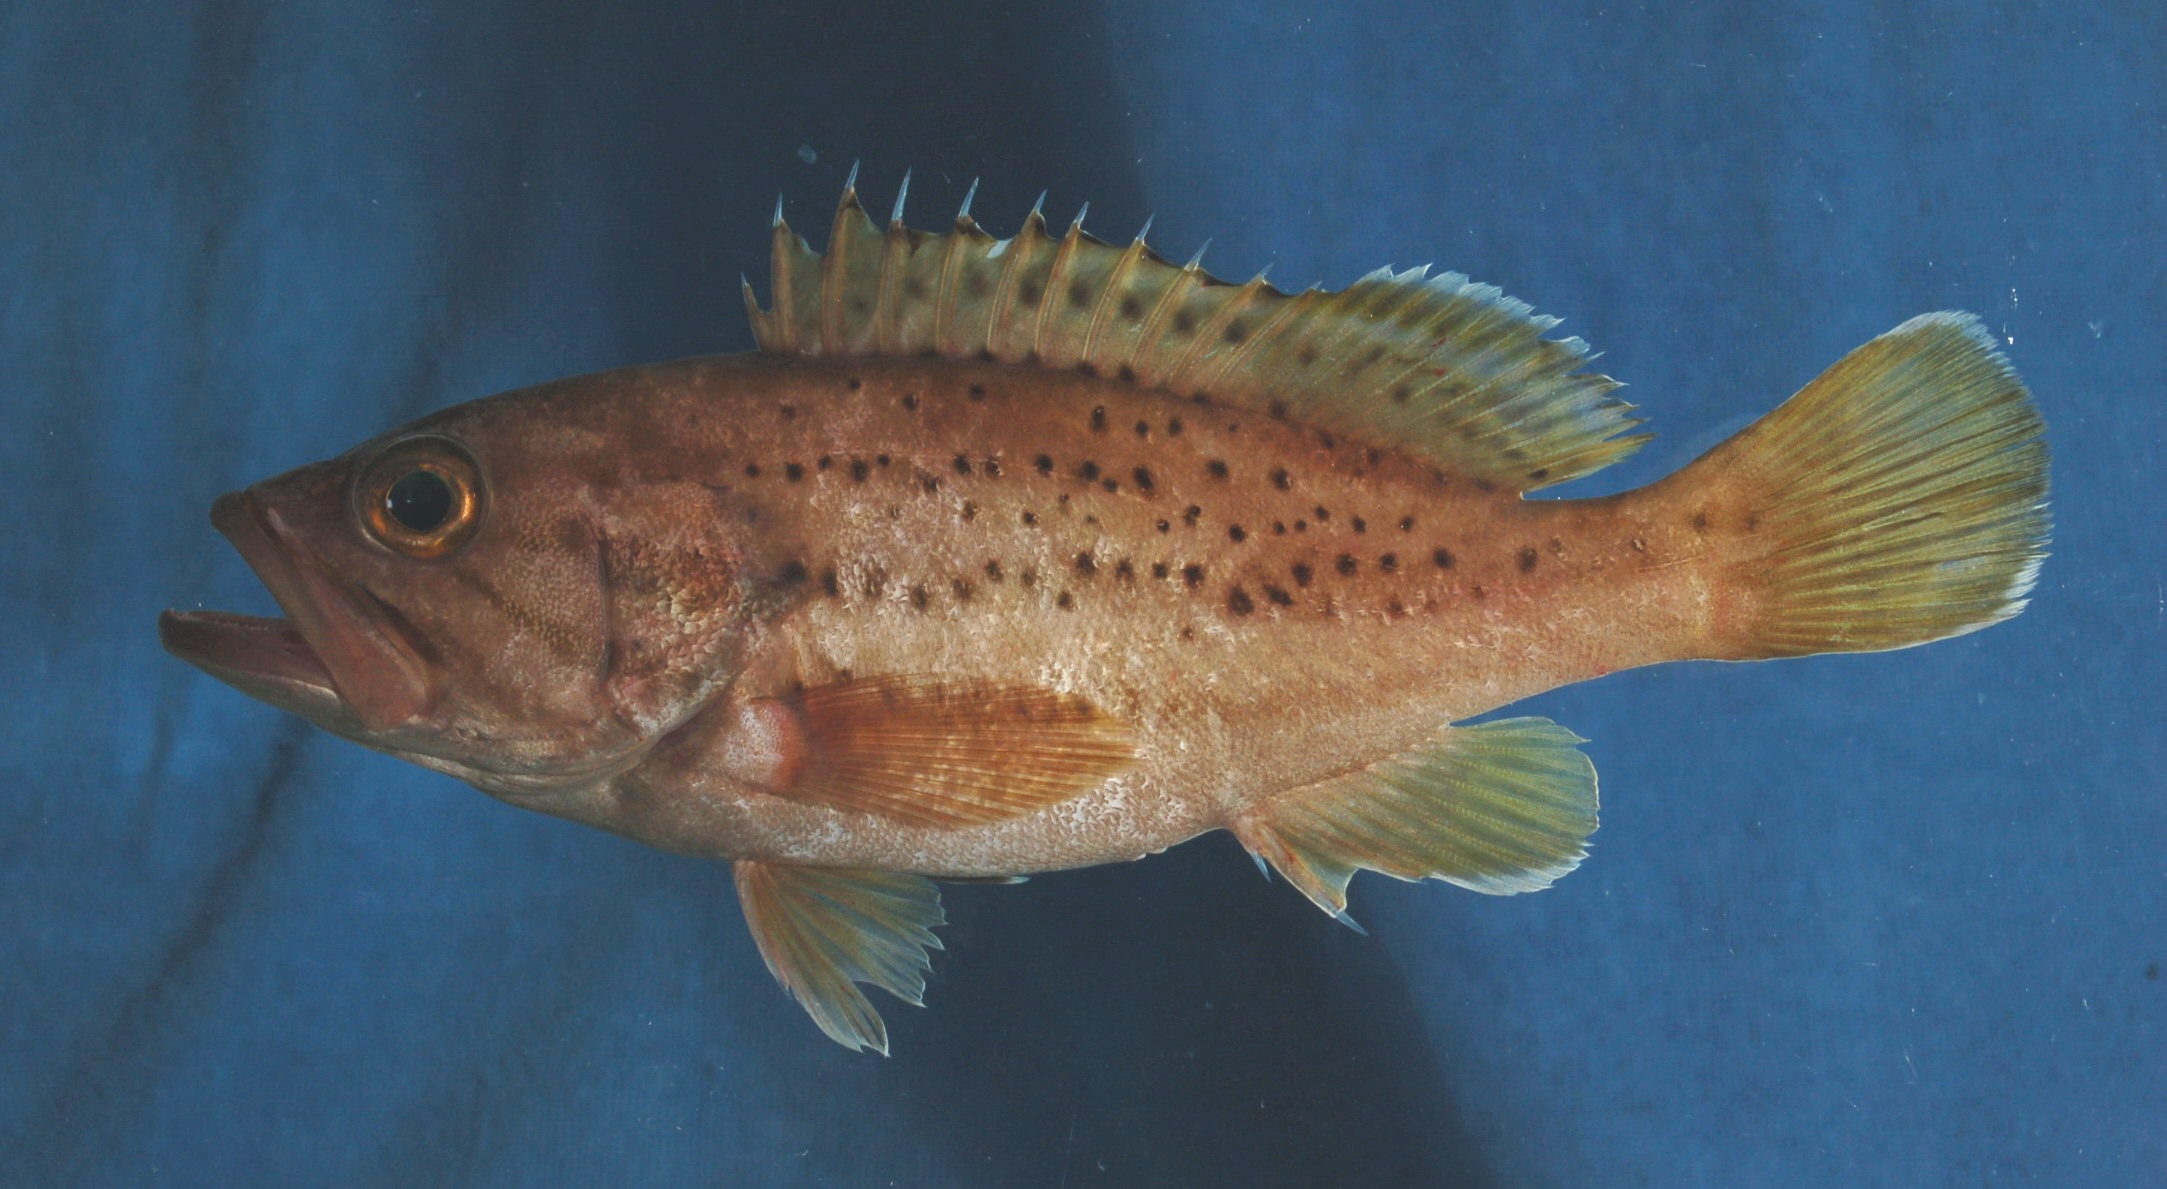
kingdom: Animalia
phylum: Chordata
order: Perciformes
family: Serranidae
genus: Epinephelus
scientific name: Epinephelus epistictus
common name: Dotted grouper
